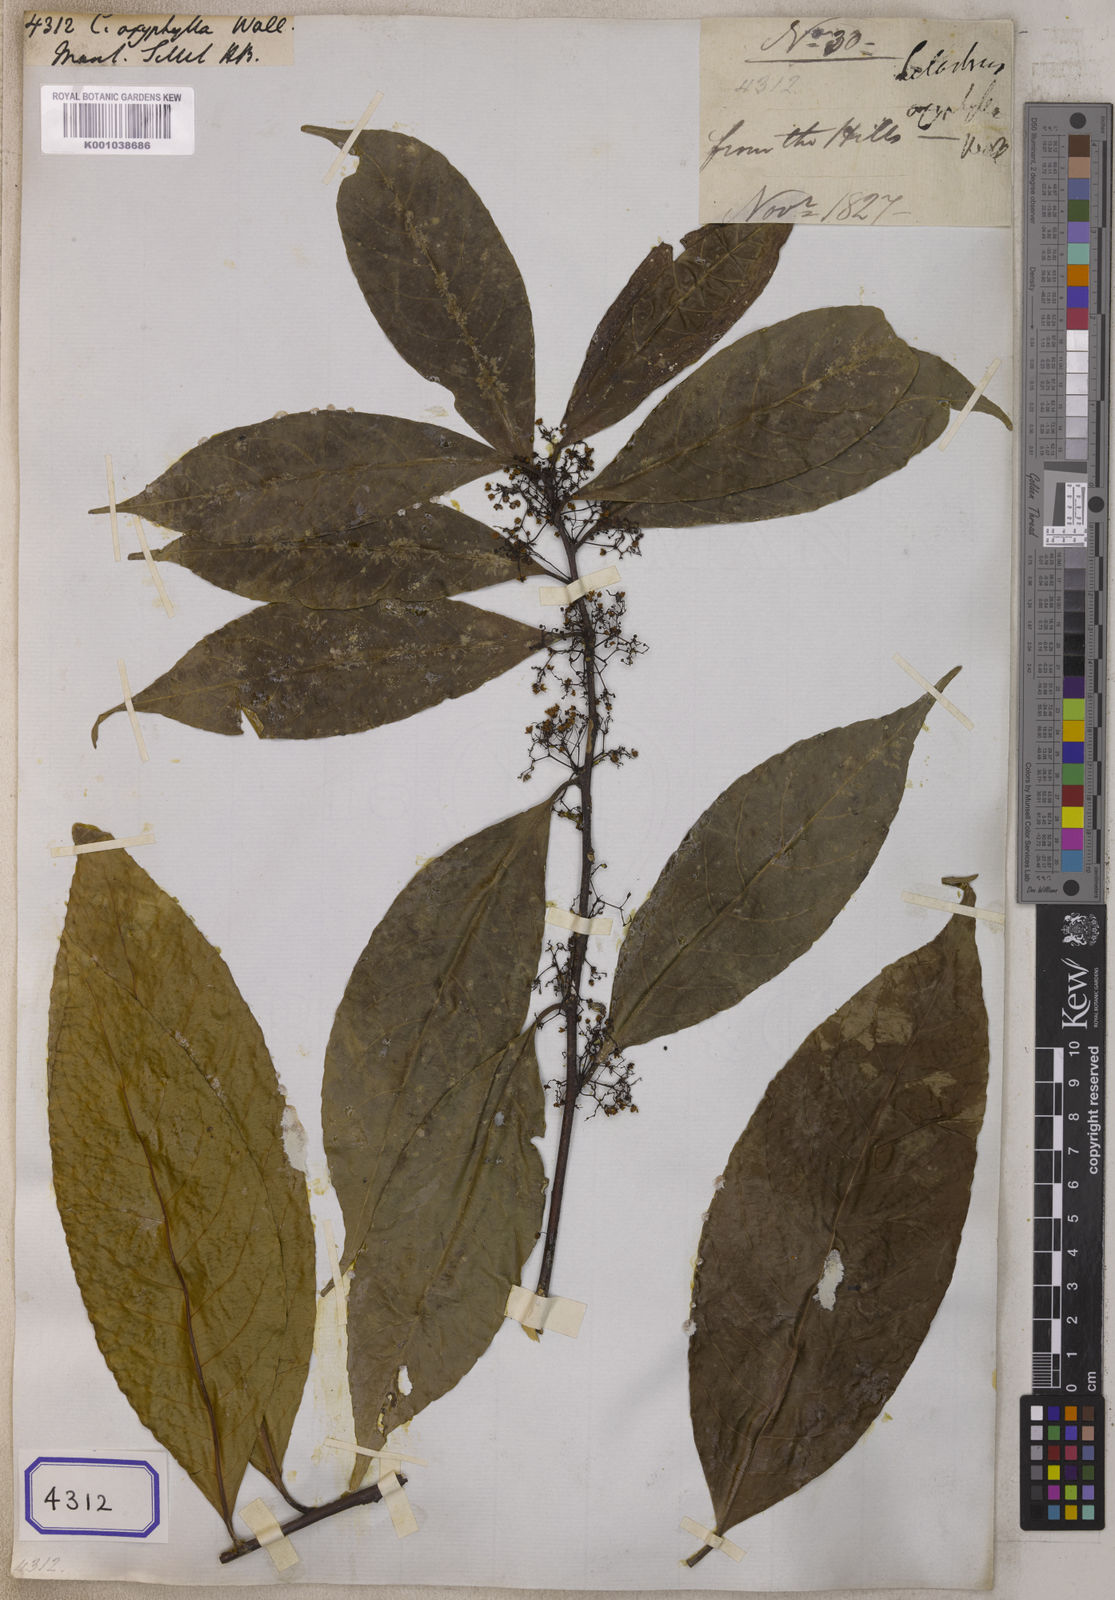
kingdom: Plantae
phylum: Tracheophyta
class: Magnoliopsida
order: Celastrales
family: Celastraceae
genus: Celastrus
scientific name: Celastrus
